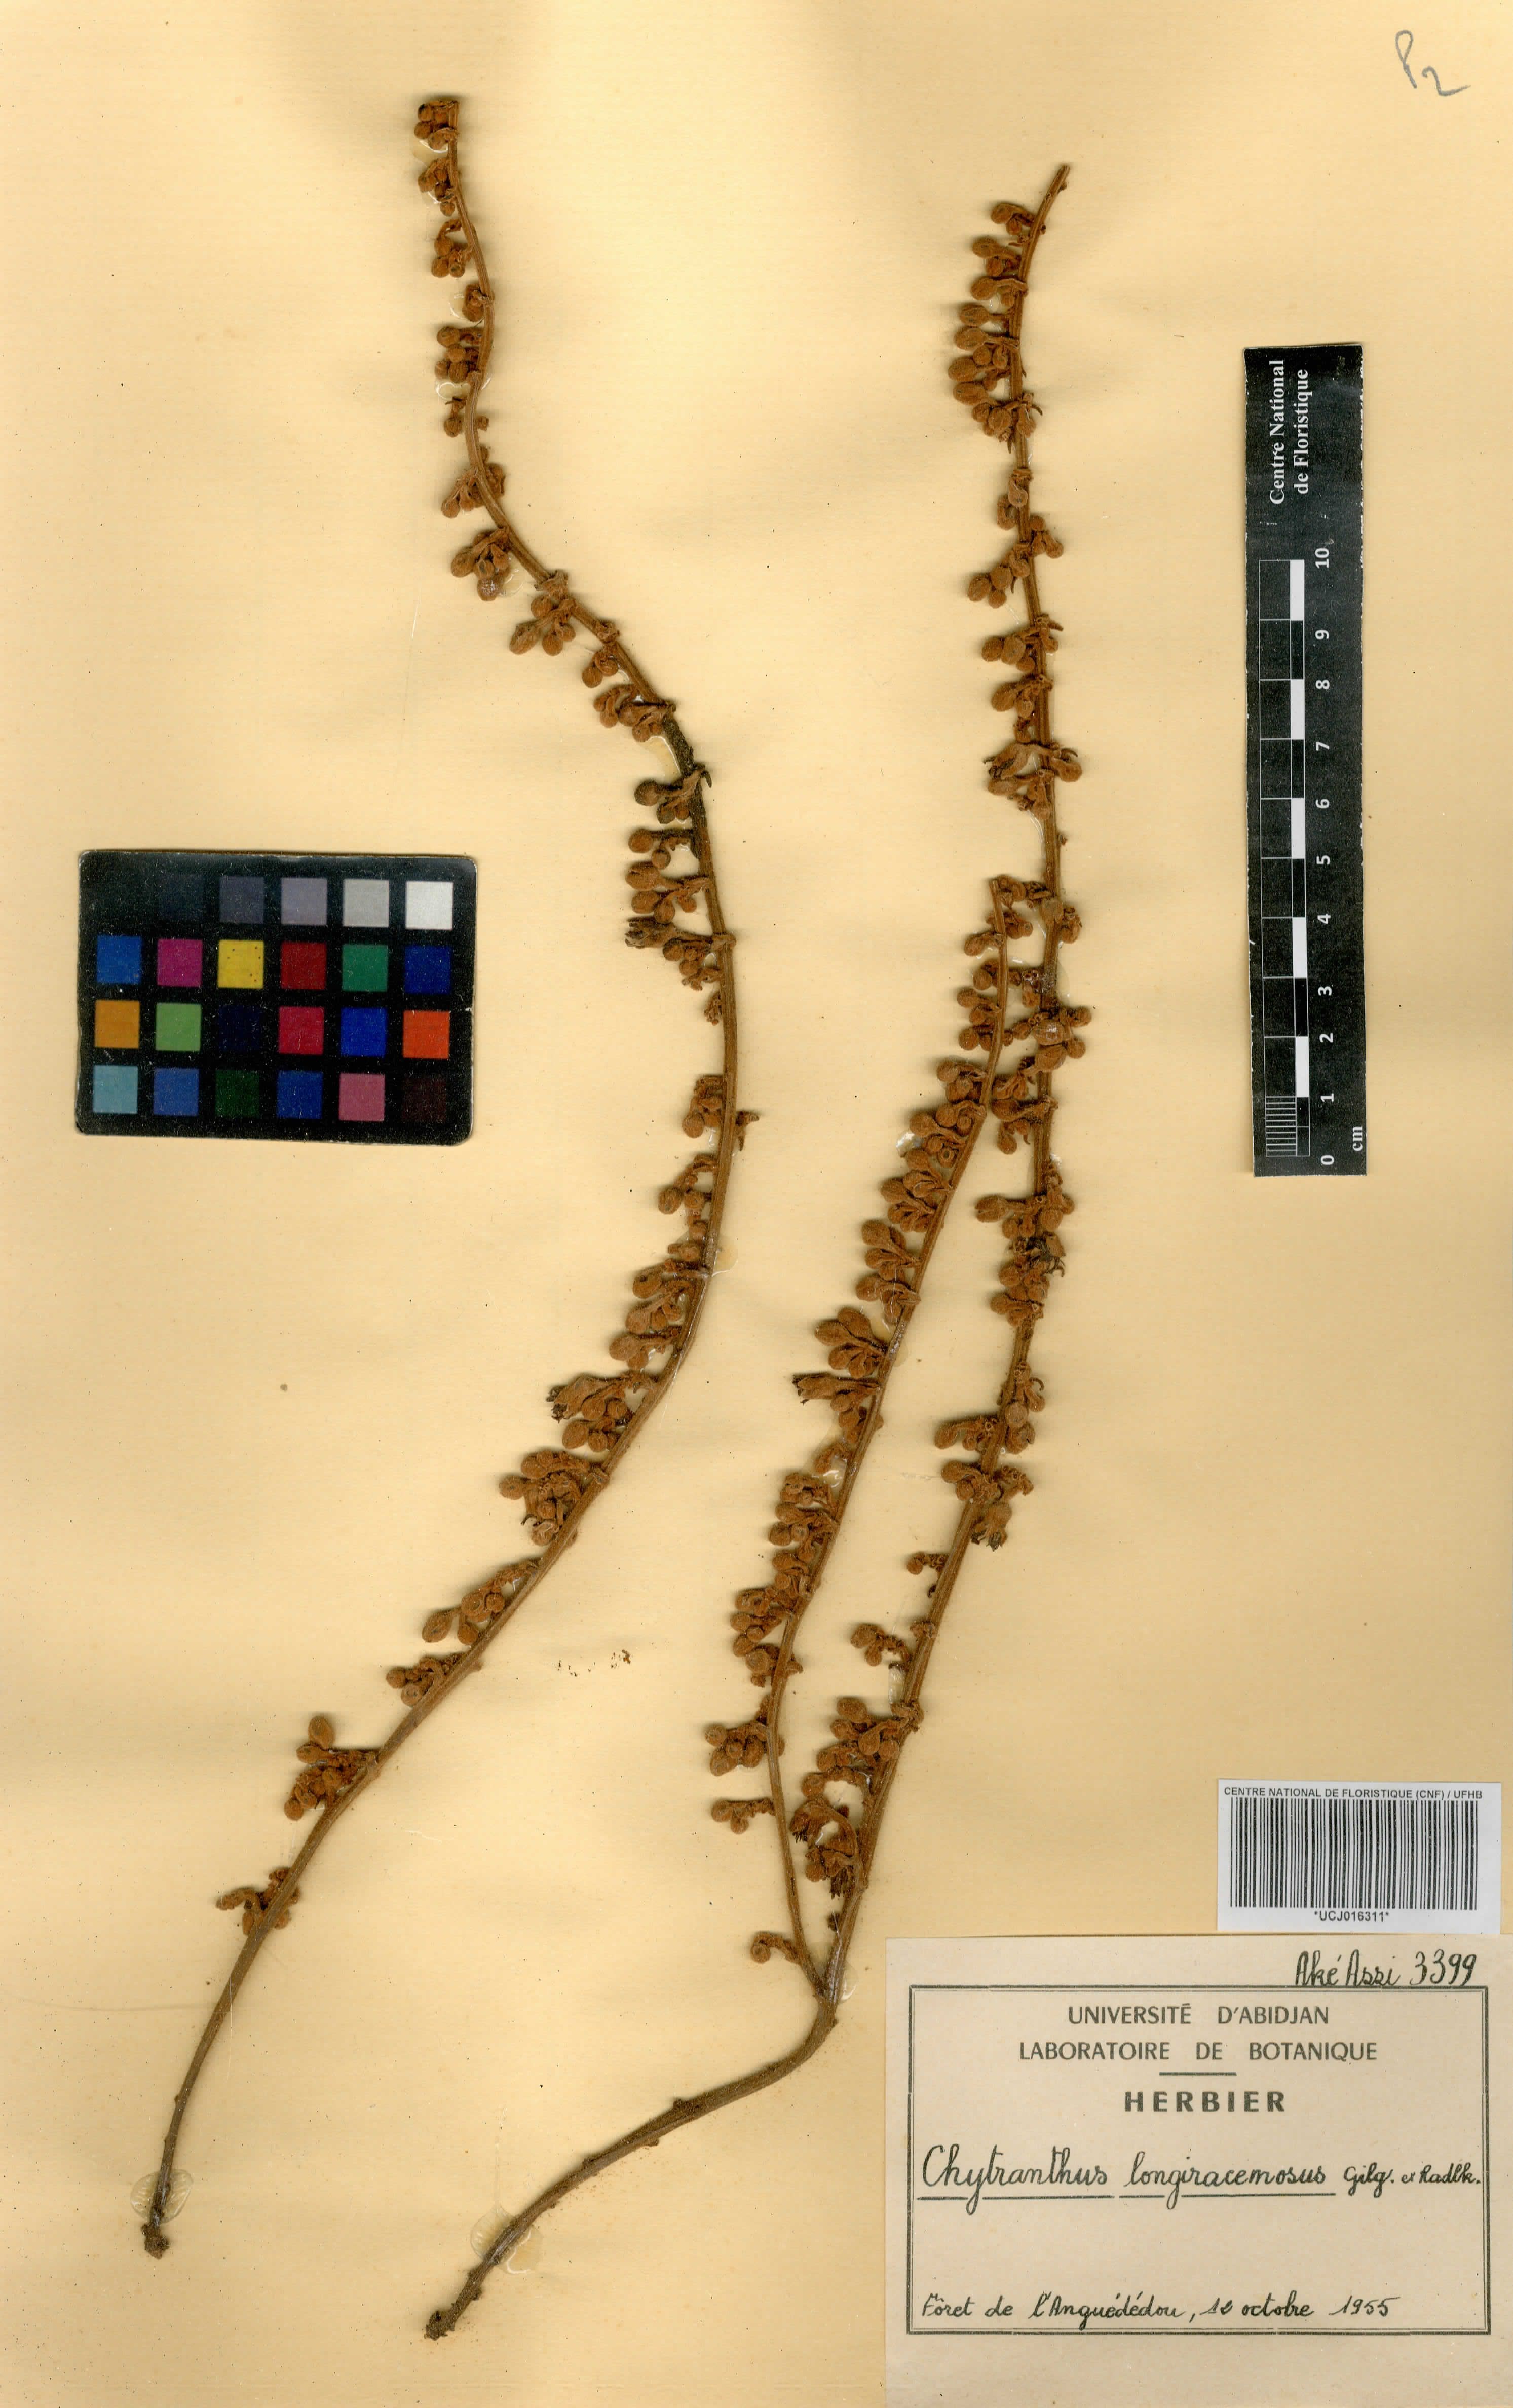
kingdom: Plantae
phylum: Tracheophyta
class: Magnoliopsida
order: Sapindales
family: Sapindaceae
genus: Chytranthus
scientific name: Chytranthus carneus
